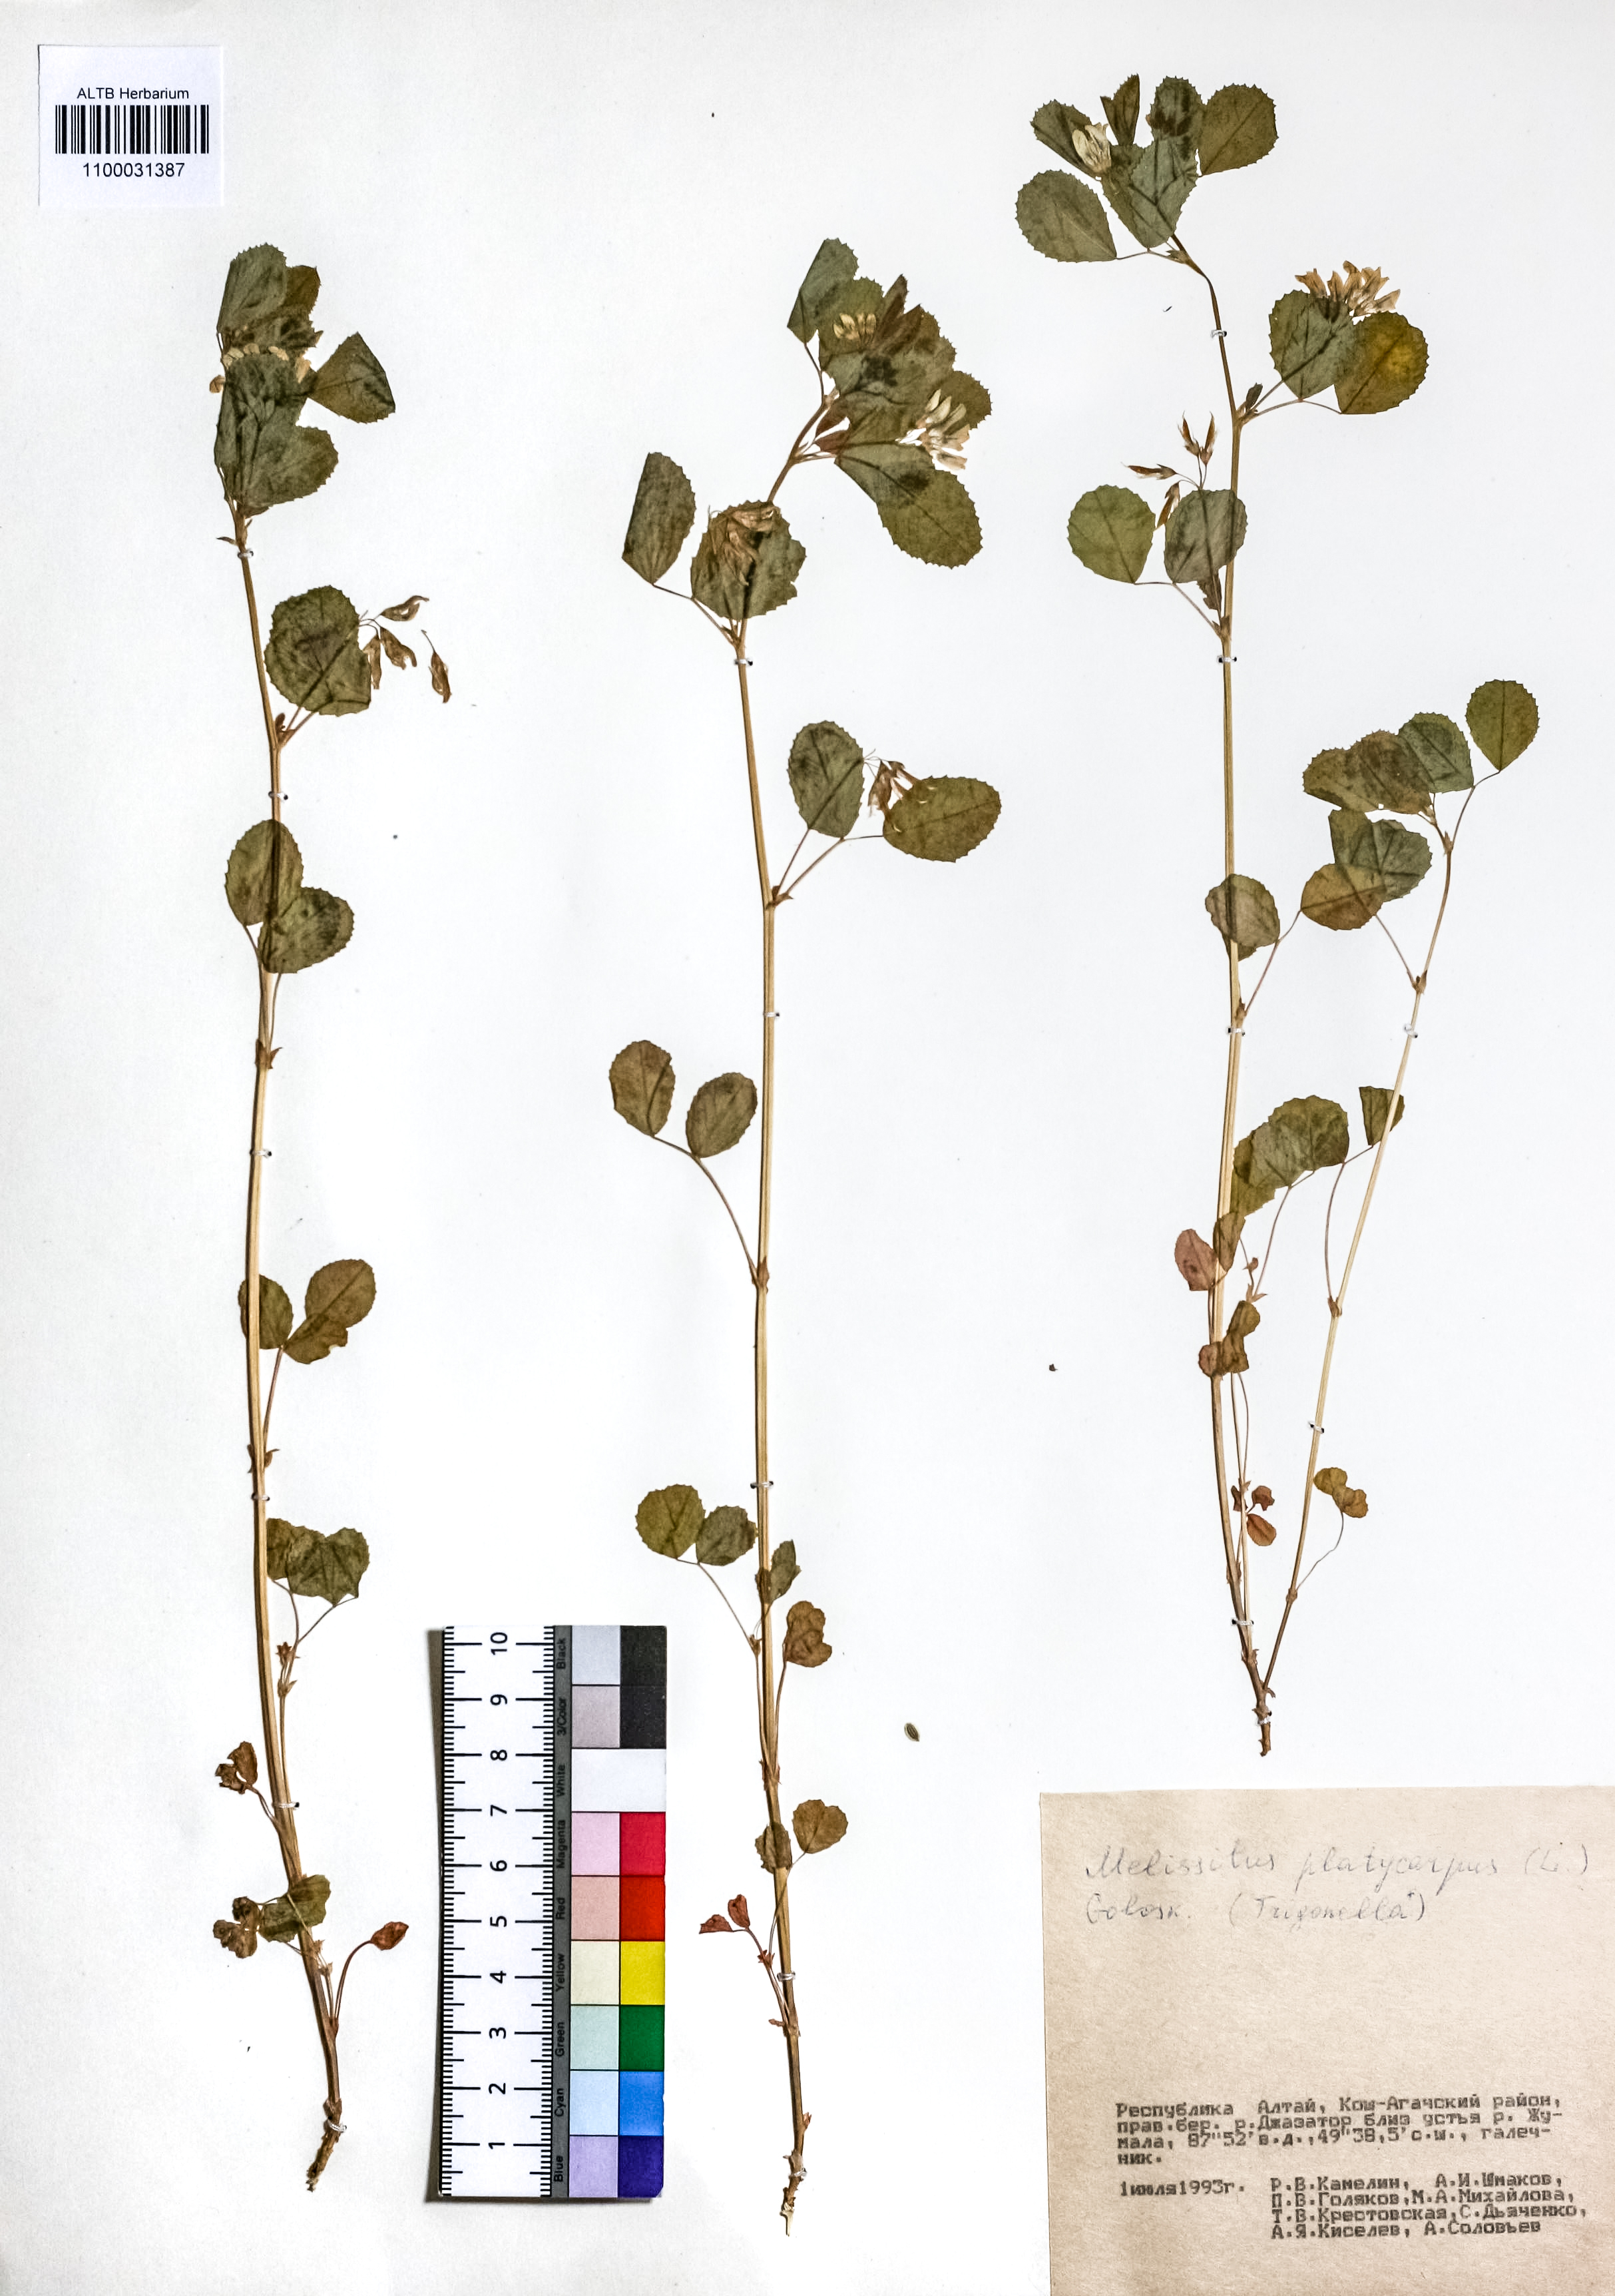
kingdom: Plantae
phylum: Tracheophyta
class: Magnoliopsida
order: Fabales
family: Fabaceae
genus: Medicago
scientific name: Medicago platycarpos
